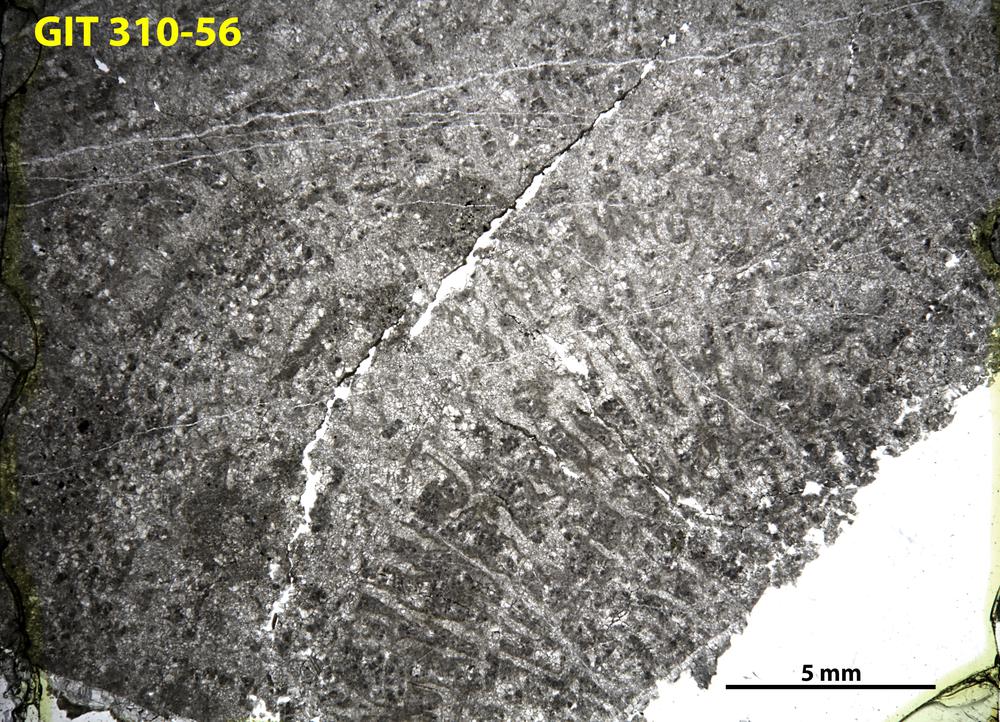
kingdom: Animalia
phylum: Porifera
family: Labechiidae
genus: Stromatocerium
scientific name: Stromatocerium
